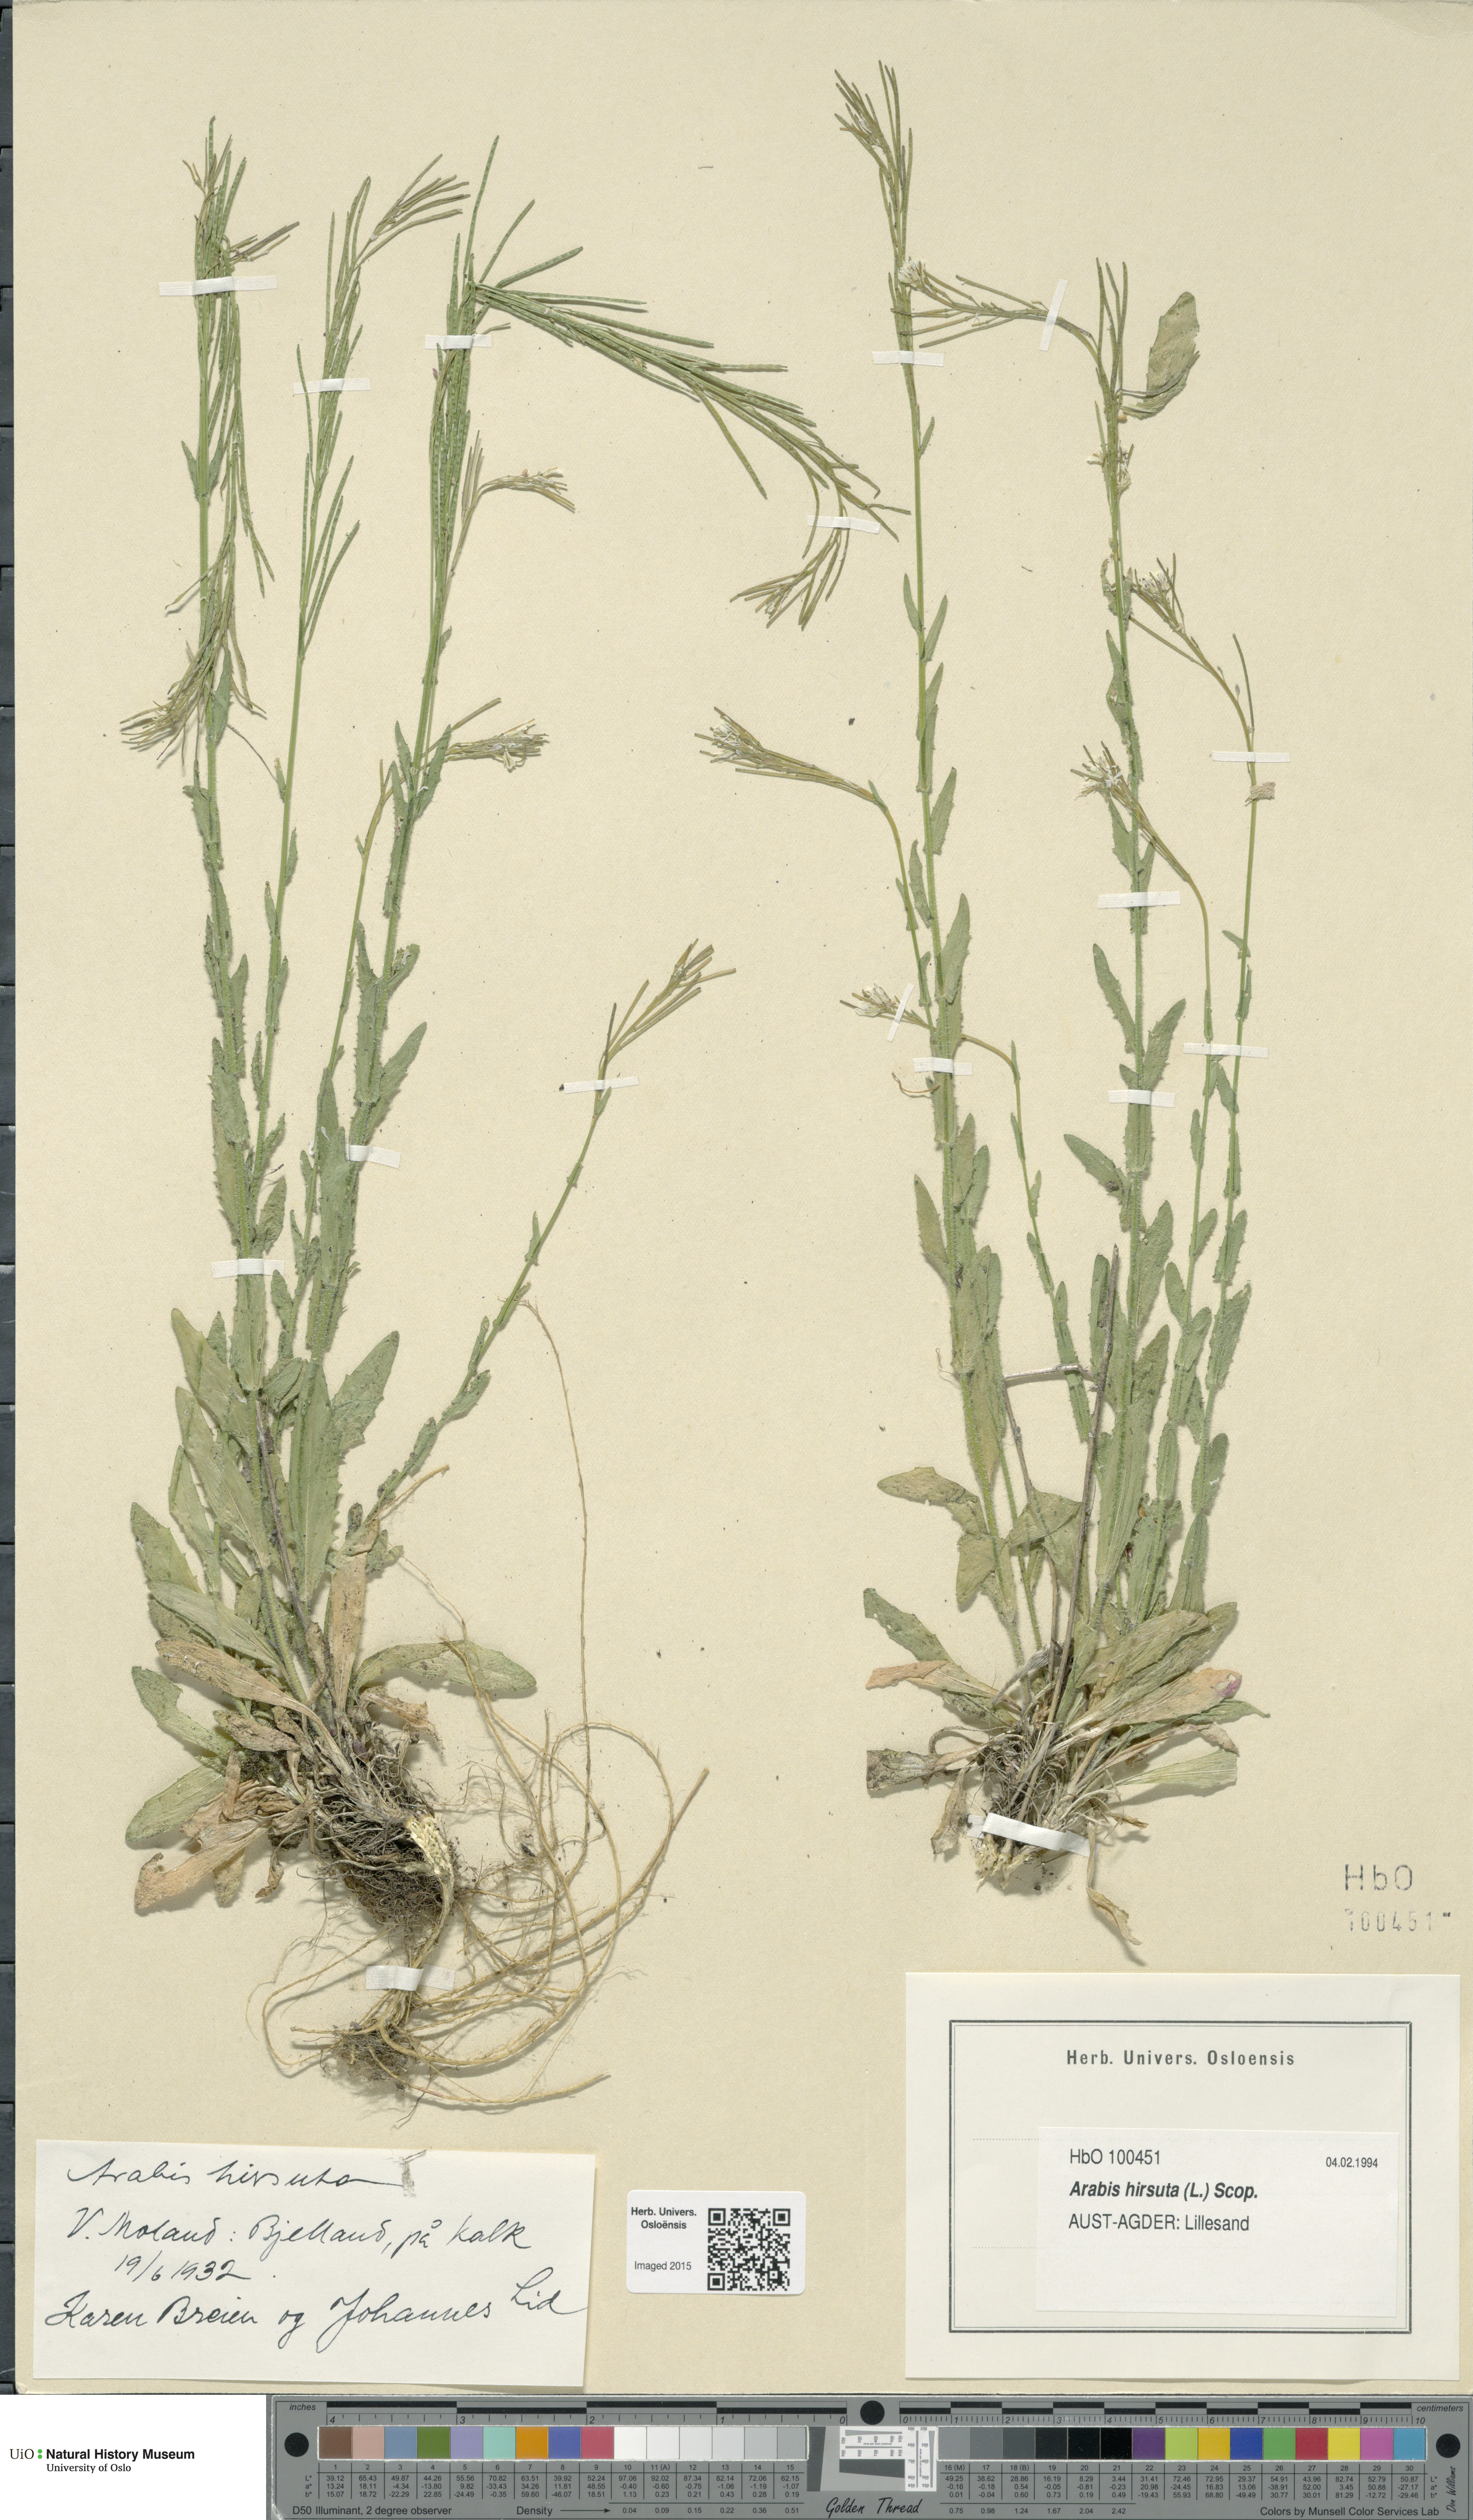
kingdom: Plantae
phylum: Tracheophyta
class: Magnoliopsida
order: Brassicales
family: Brassicaceae
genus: Arabis
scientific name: Arabis hirsuta
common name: Hairy rock-cress
